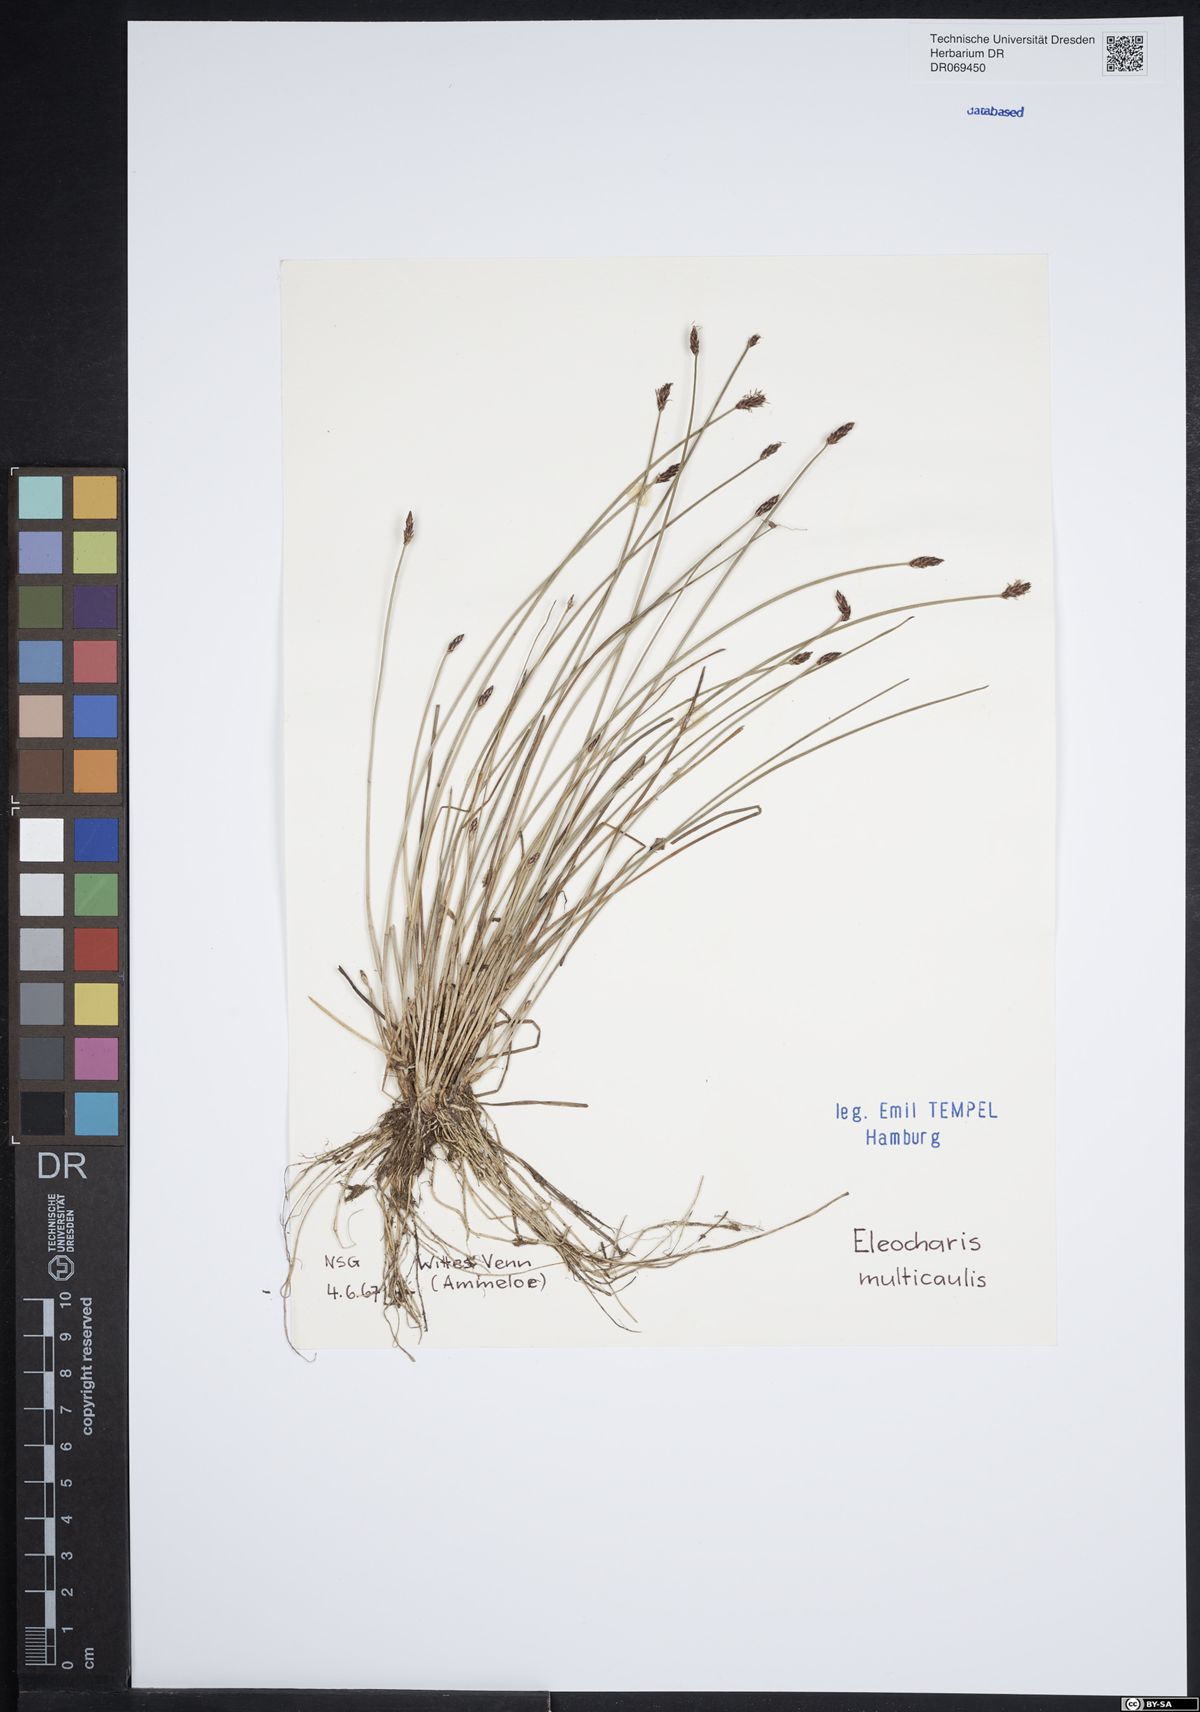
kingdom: Plantae
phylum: Tracheophyta
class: Liliopsida
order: Poales
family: Cyperaceae
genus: Eleocharis
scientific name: Eleocharis multicaulis
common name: Many-stalked spike-rush
